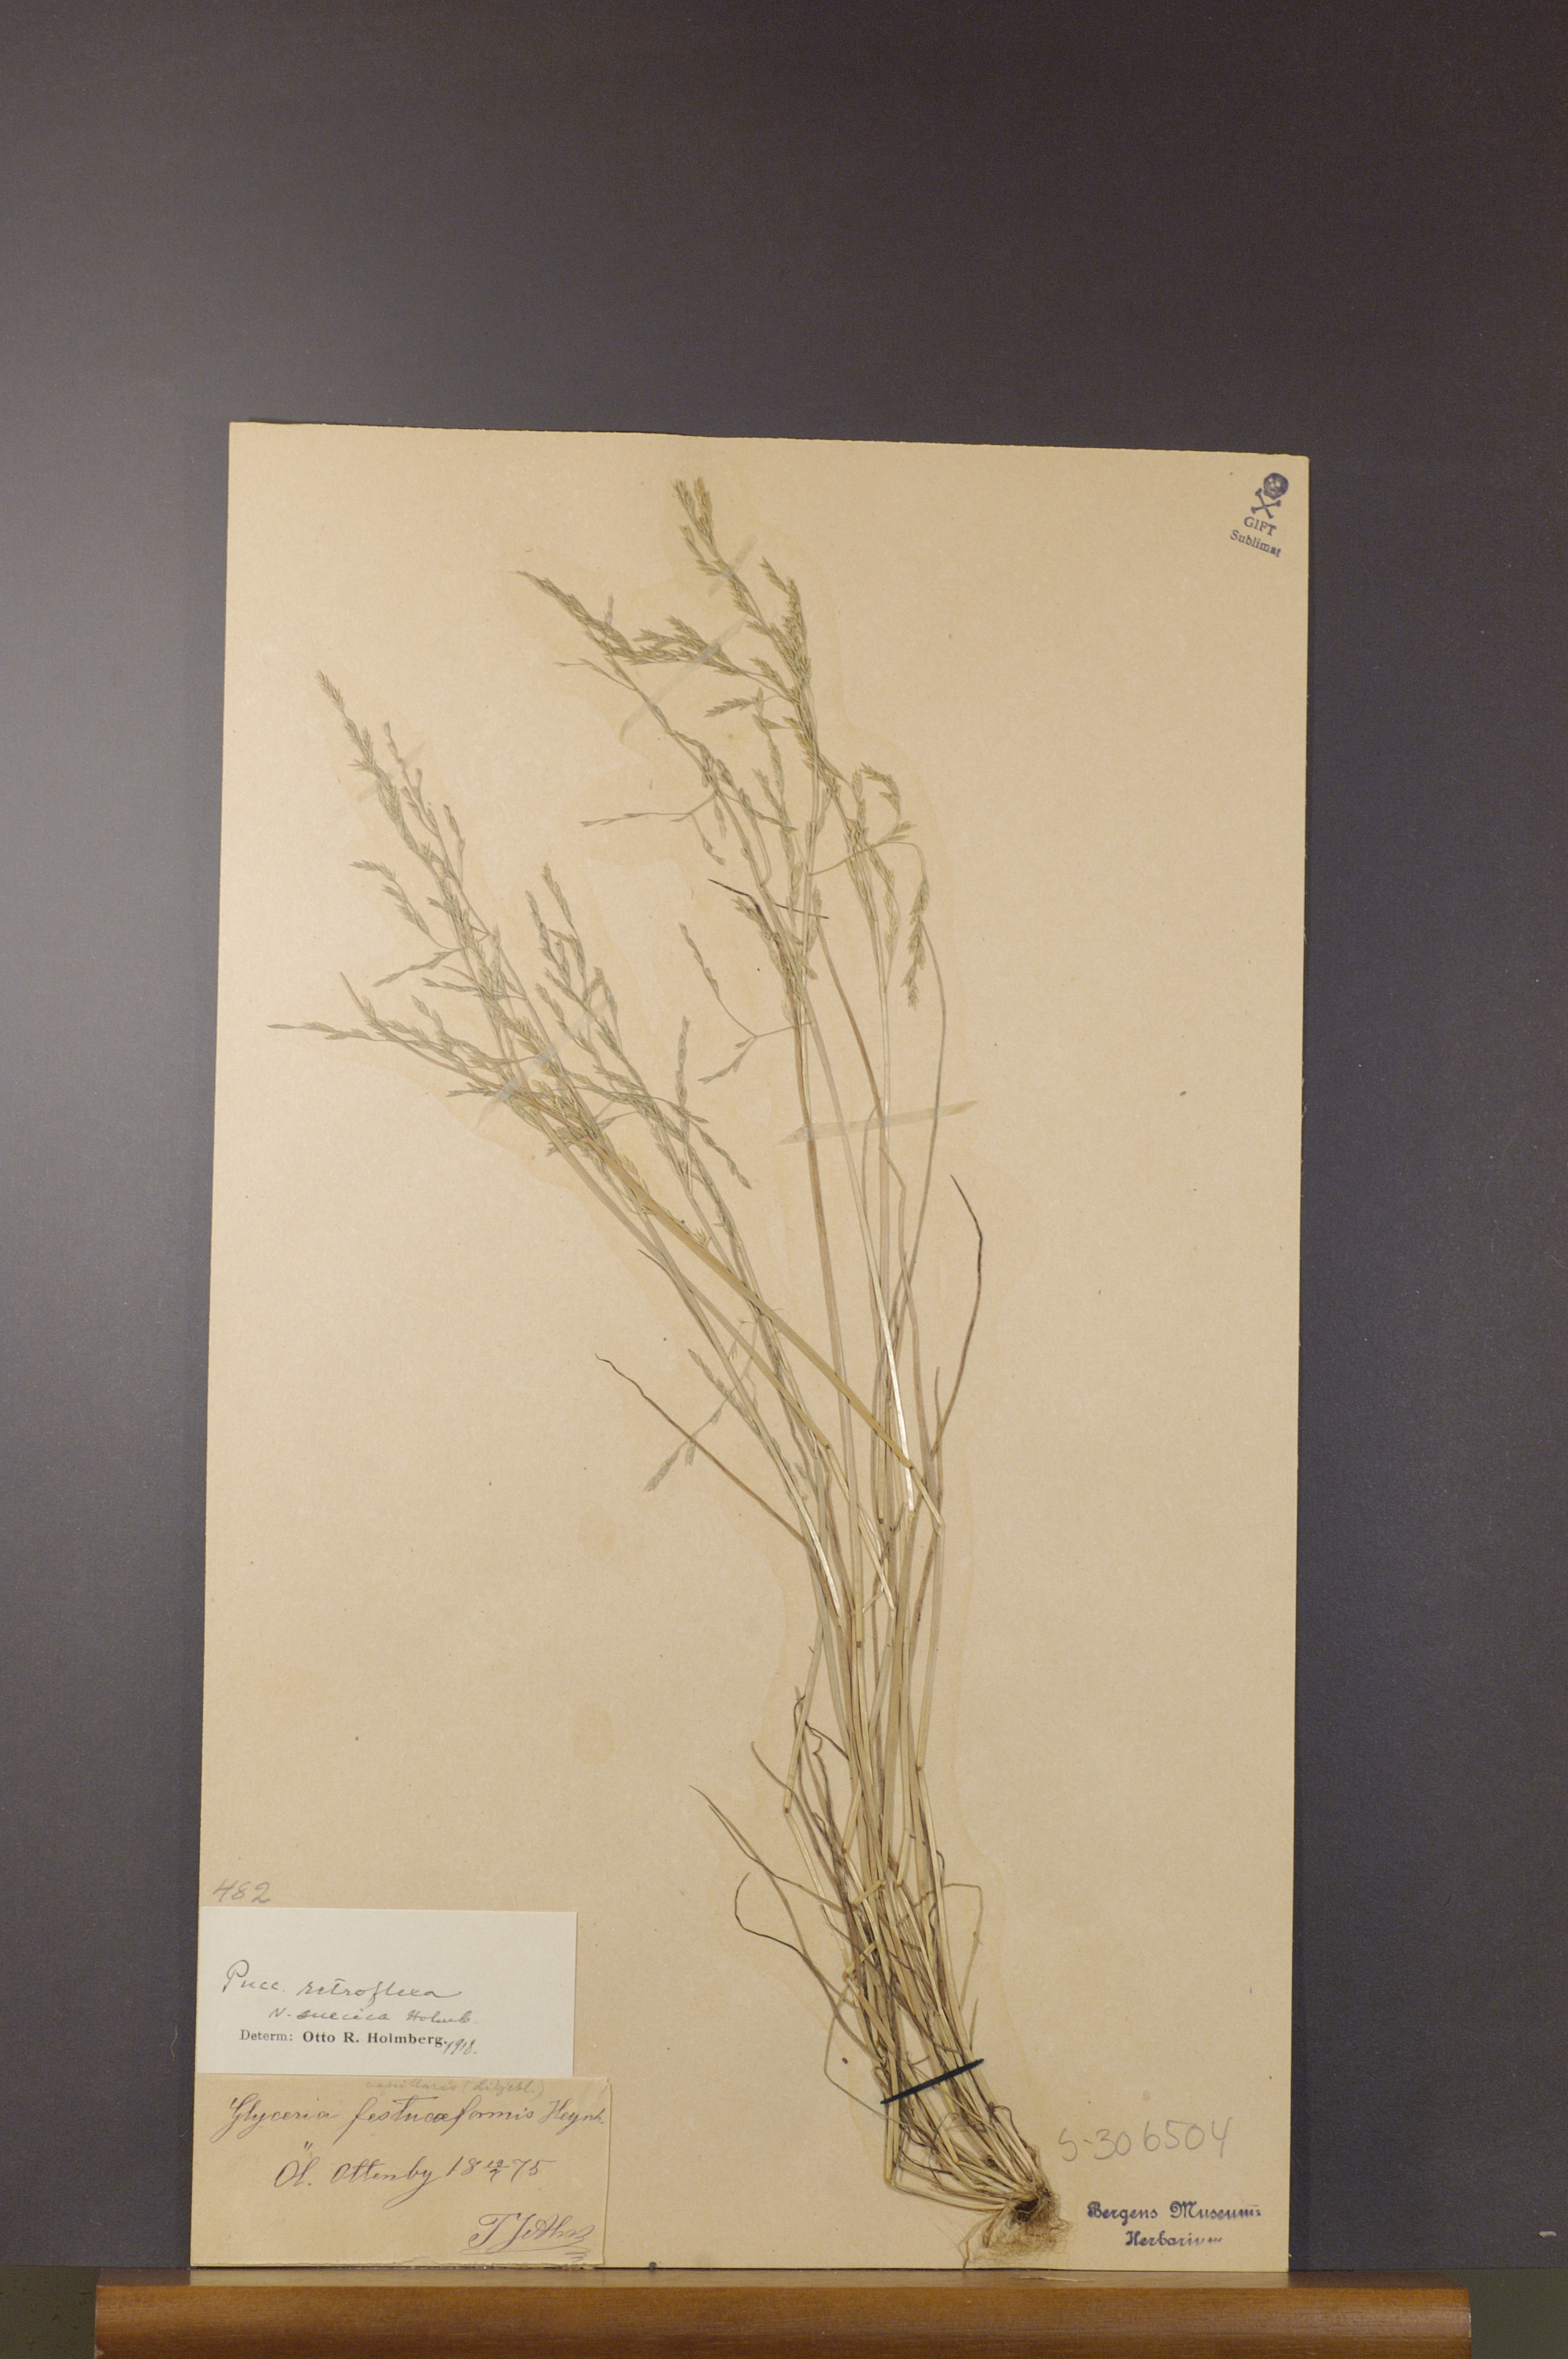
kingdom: Plantae
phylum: Tracheophyta
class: Liliopsida
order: Poales
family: Poaceae
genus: Puccinellia
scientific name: Puccinellia distans
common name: Weeping alkaligrass
